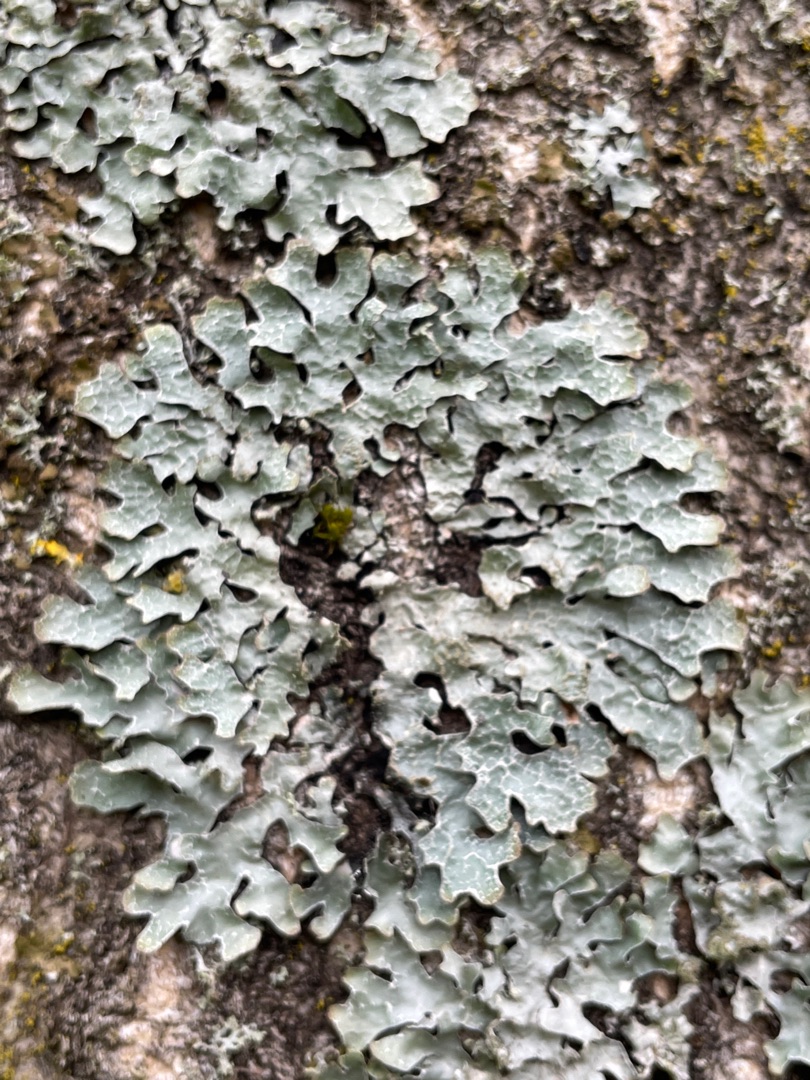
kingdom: Fungi
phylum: Ascomycota
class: Lecanoromycetes
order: Lecanorales
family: Parmeliaceae
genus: Parmelia
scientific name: Parmelia sulcata
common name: Rynket skållav
